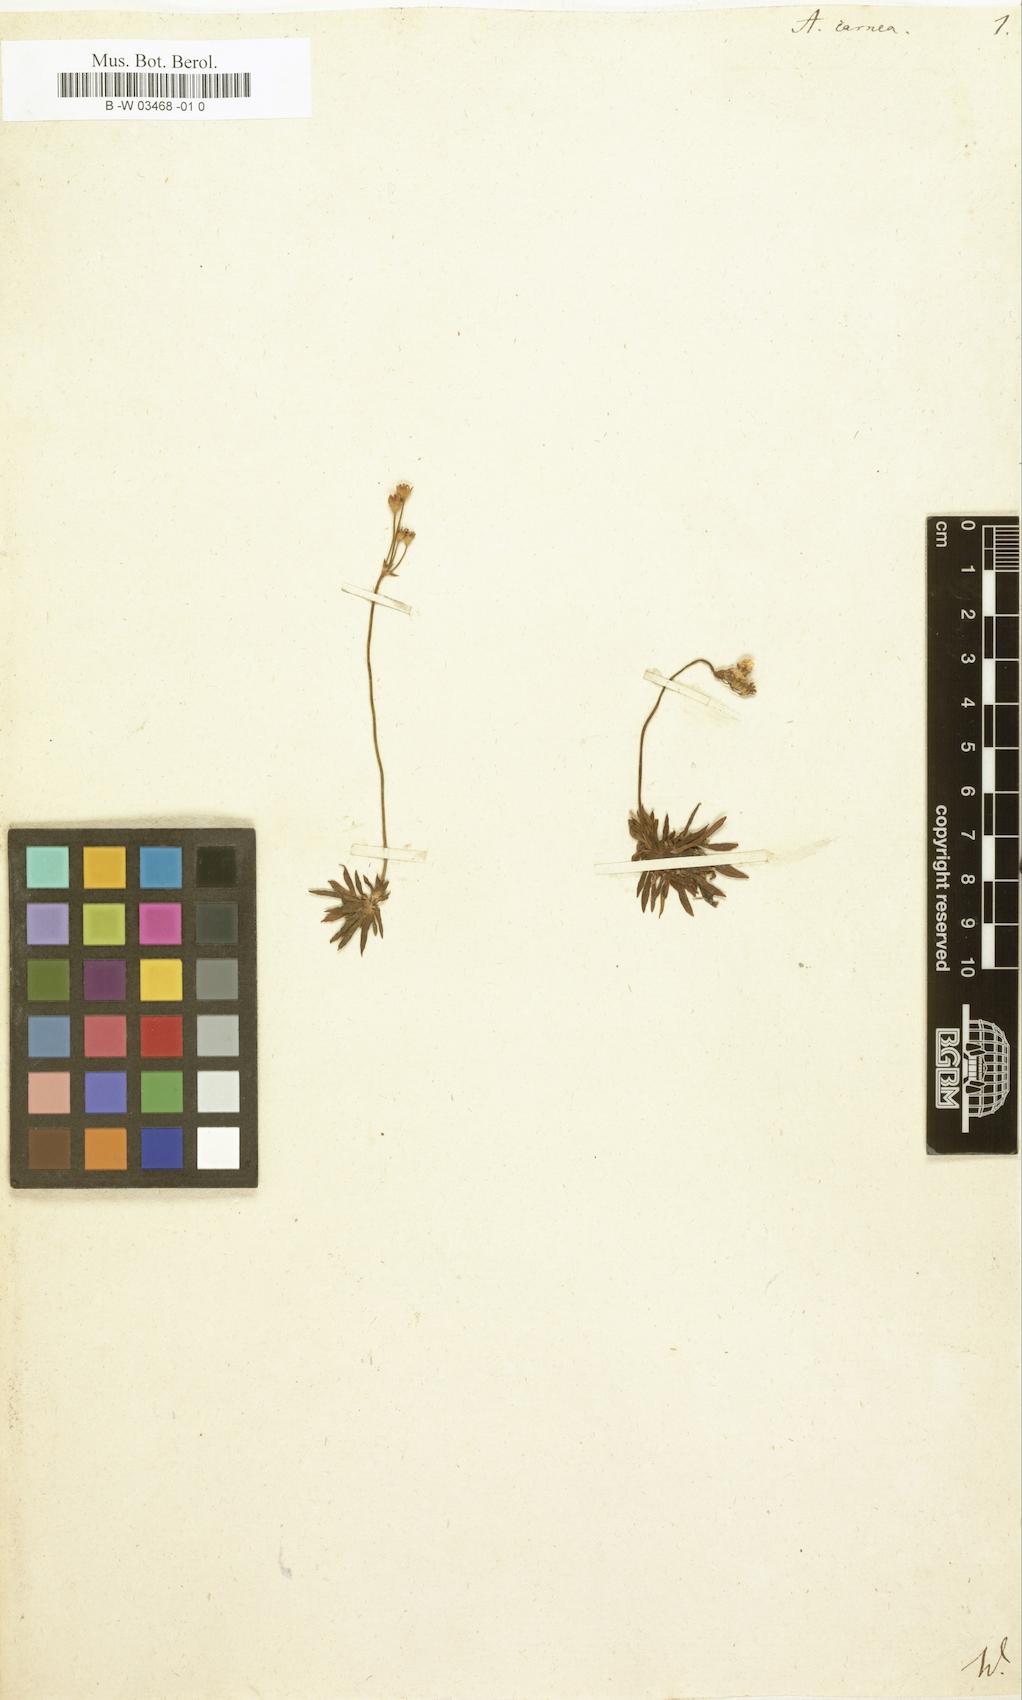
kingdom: Plantae
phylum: Tracheophyta
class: Magnoliopsida
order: Ericales
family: Primulaceae
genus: Androsace
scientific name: Androsace laggeri
